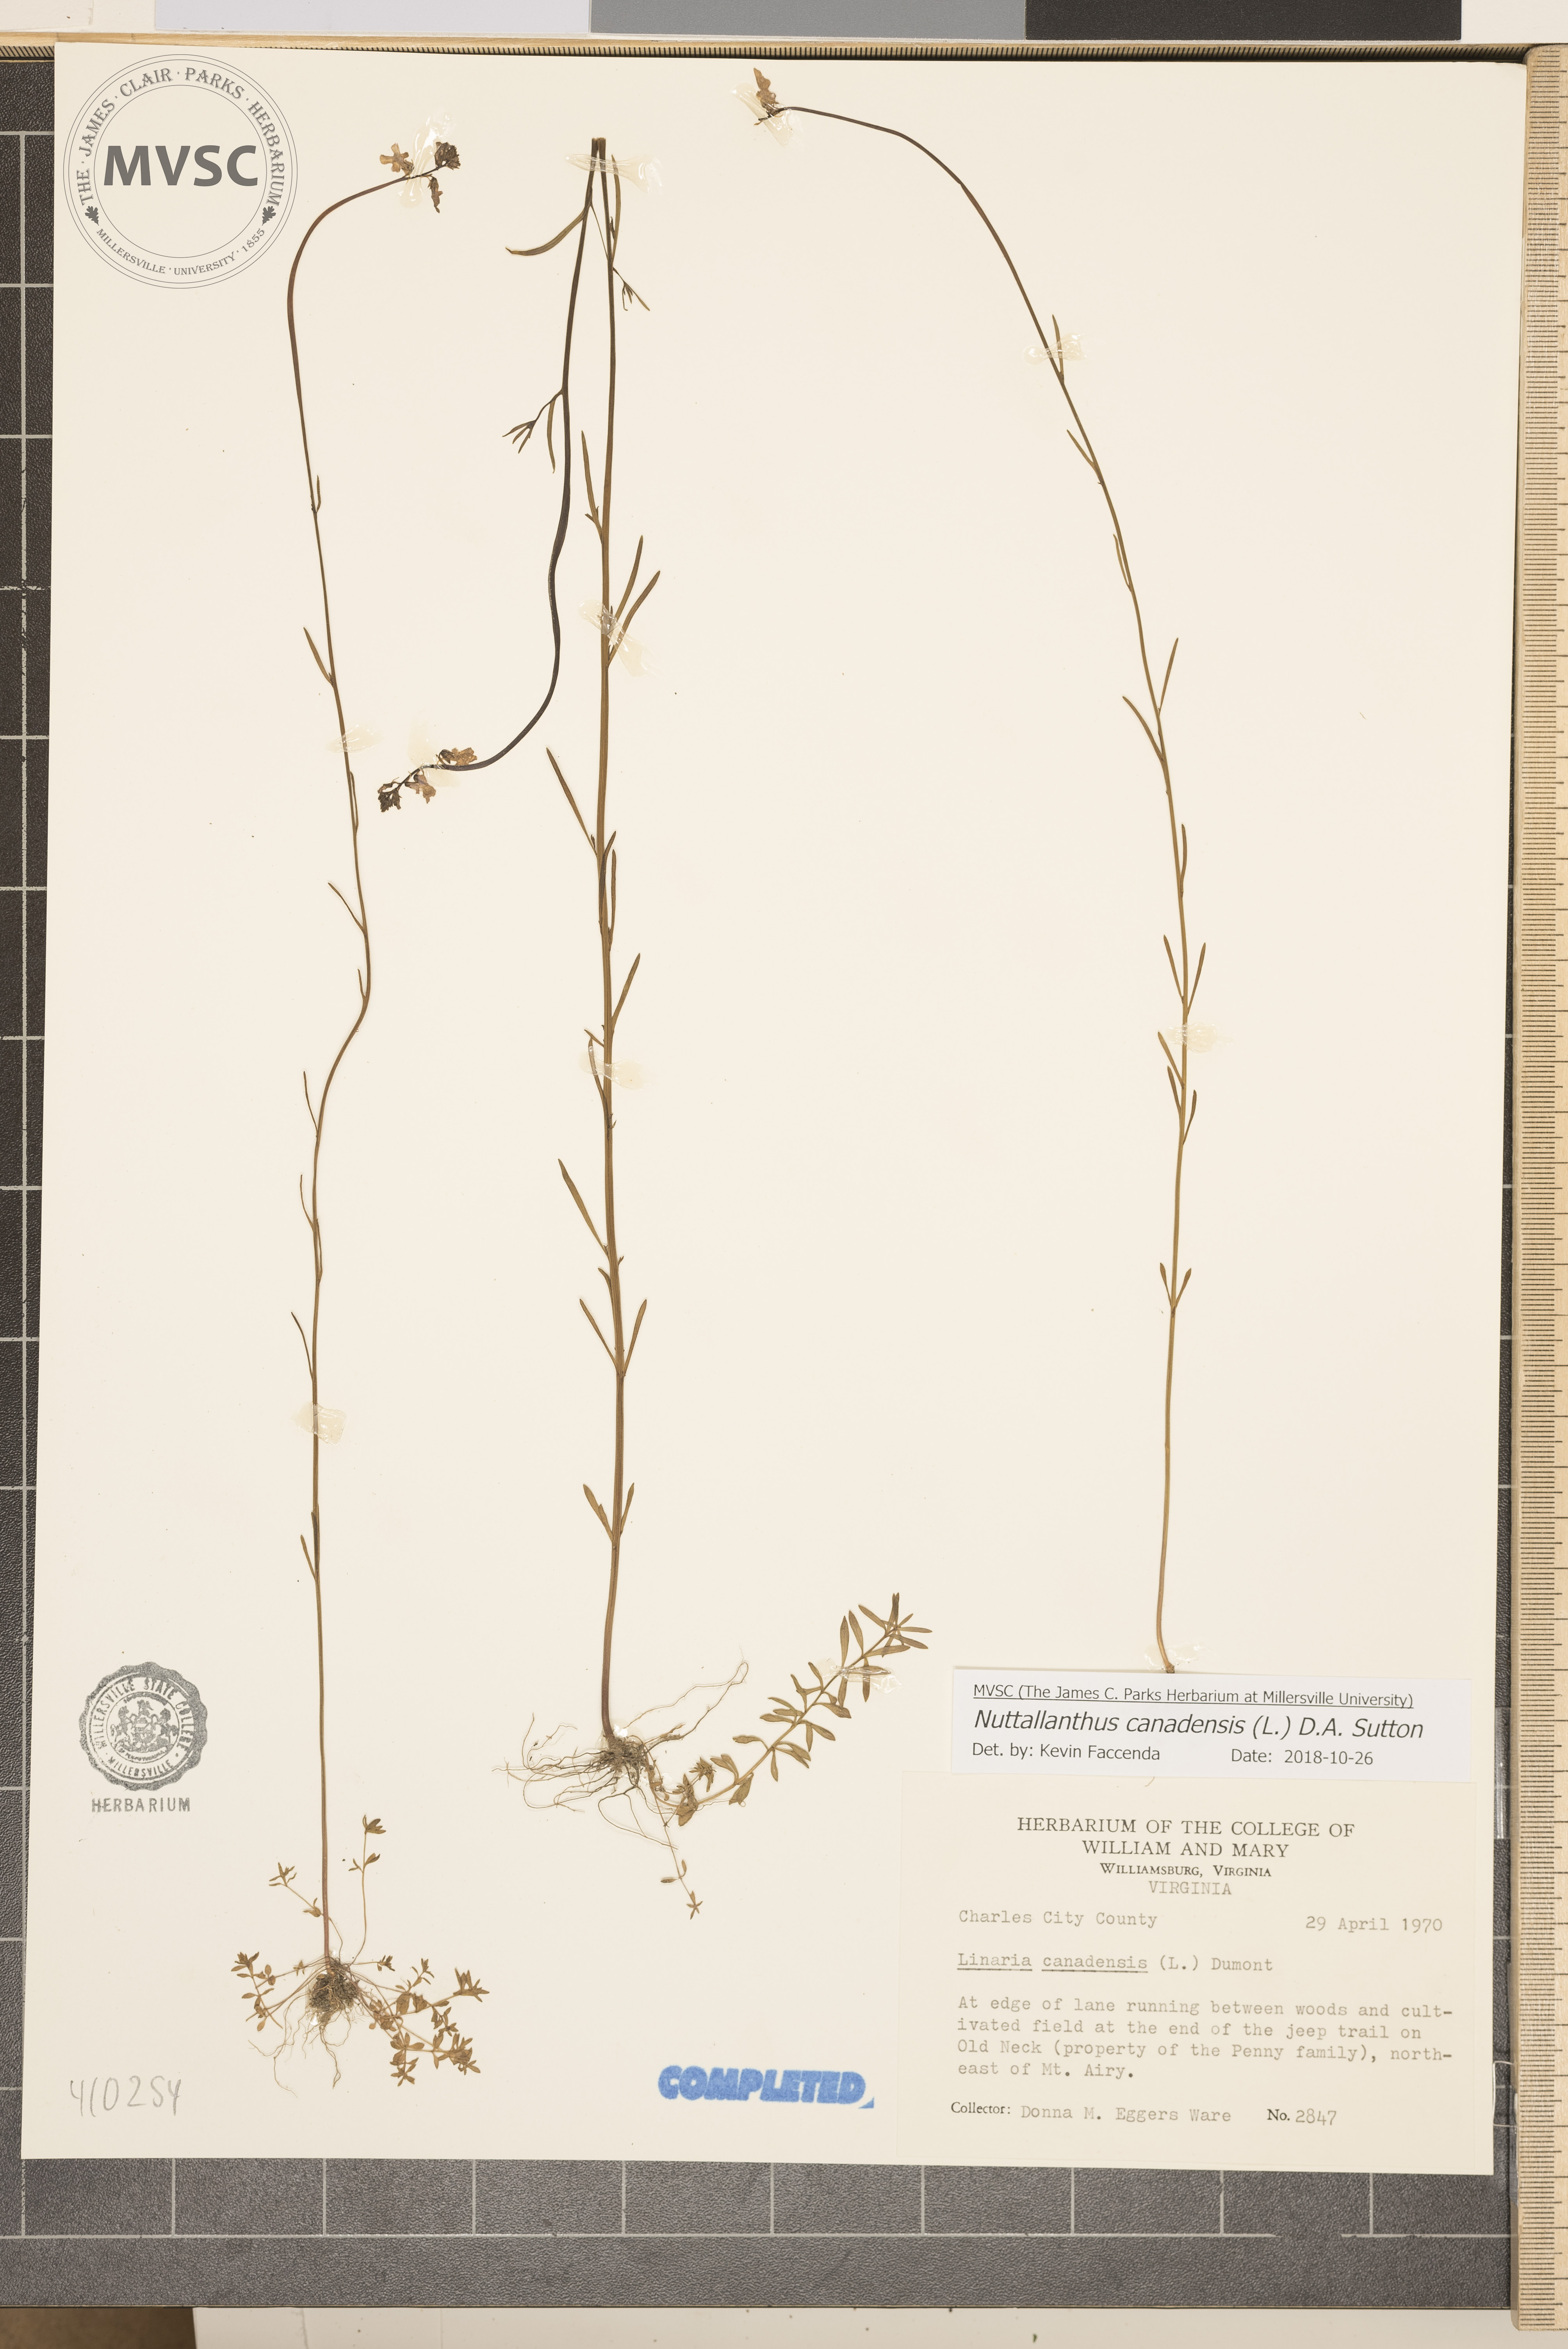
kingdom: Plantae
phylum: Tracheophyta
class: Magnoliopsida
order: Lamiales
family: Plantaginaceae
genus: Nuttallanthus
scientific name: Nuttallanthus canadensis
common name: Blue toadflax
